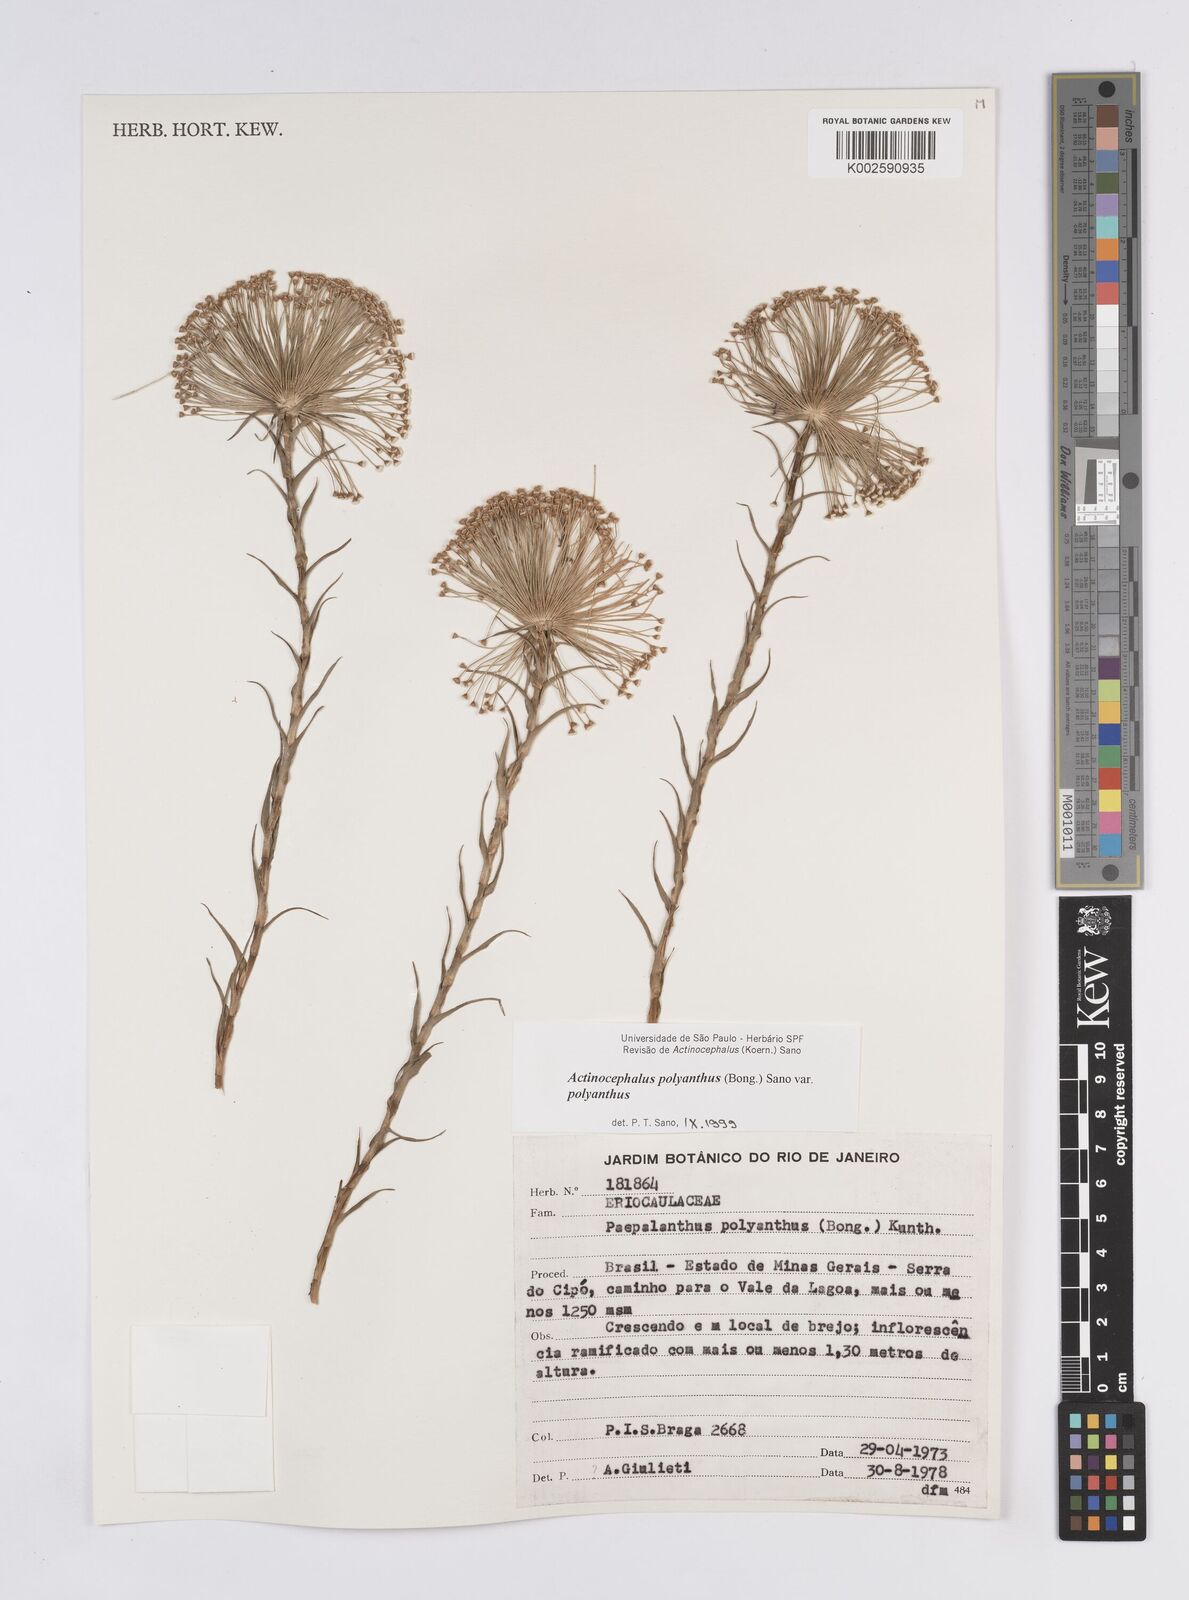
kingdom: Plantae
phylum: Tracheophyta
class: Liliopsida
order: Poales
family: Eriocaulaceae
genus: Paepalanthus
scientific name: Paepalanthus polyanthus
